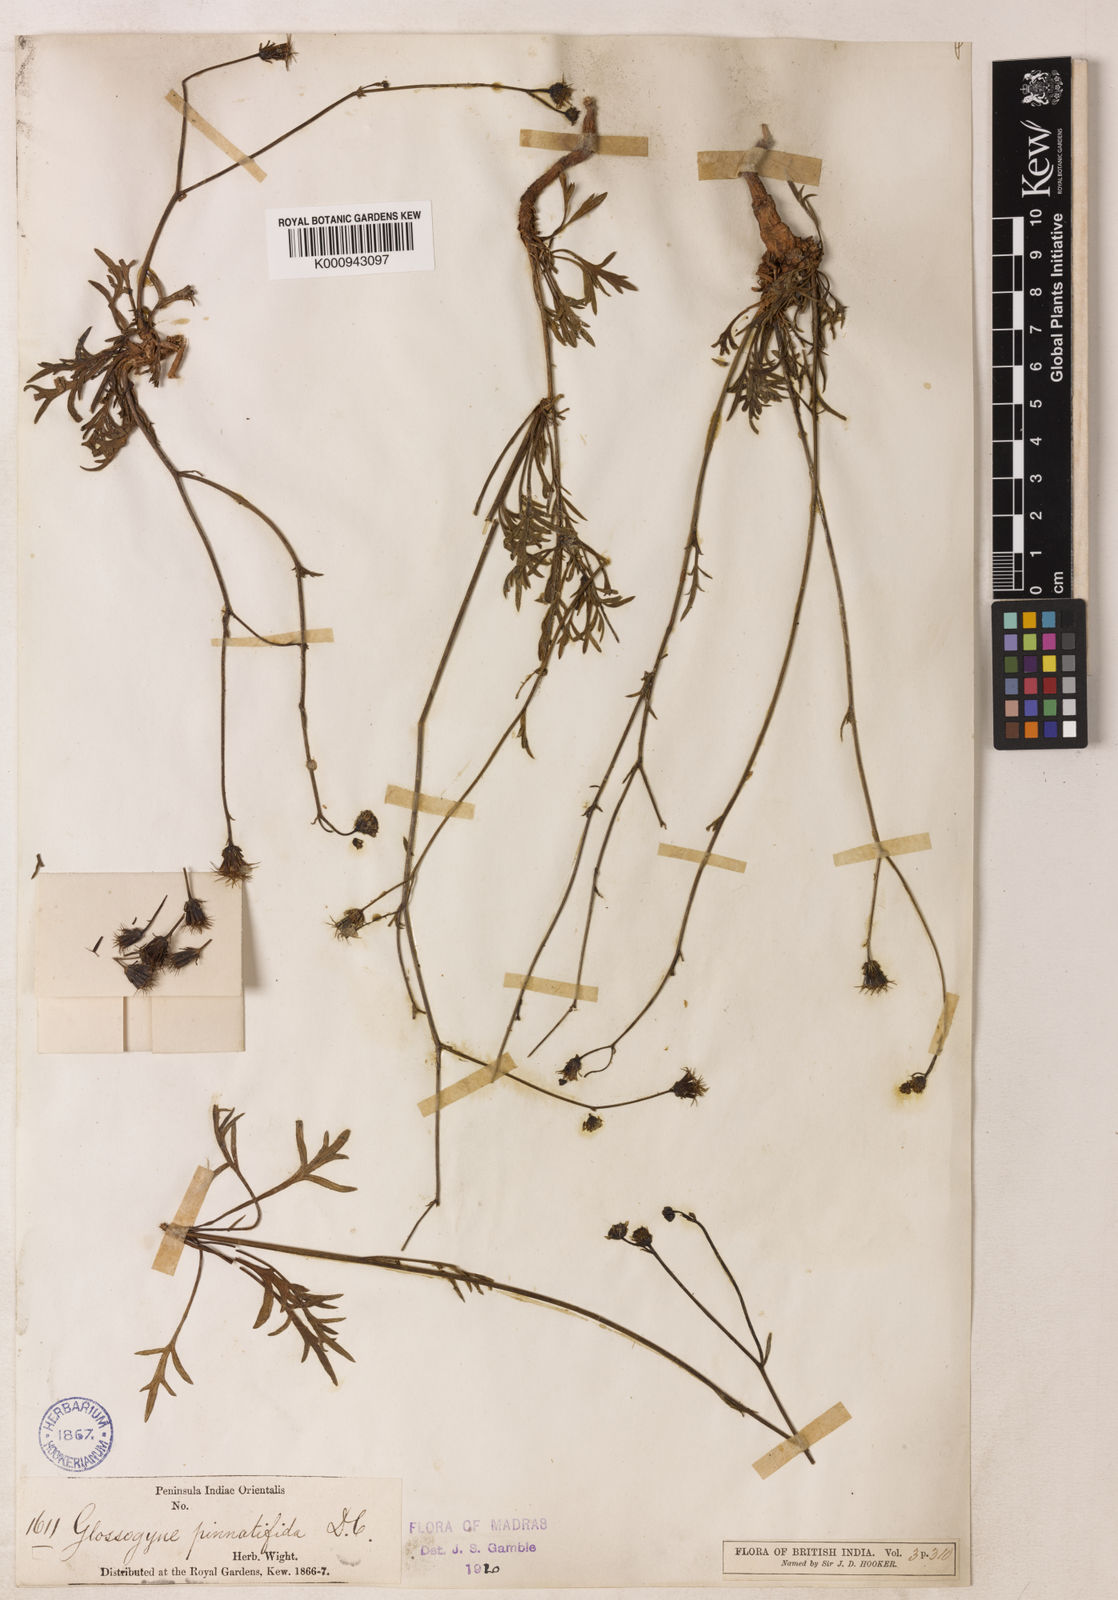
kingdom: Plantae
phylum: Tracheophyta
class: Magnoliopsida
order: Asterales
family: Asteraceae
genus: Glossocardia
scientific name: Glossocardia bidens
